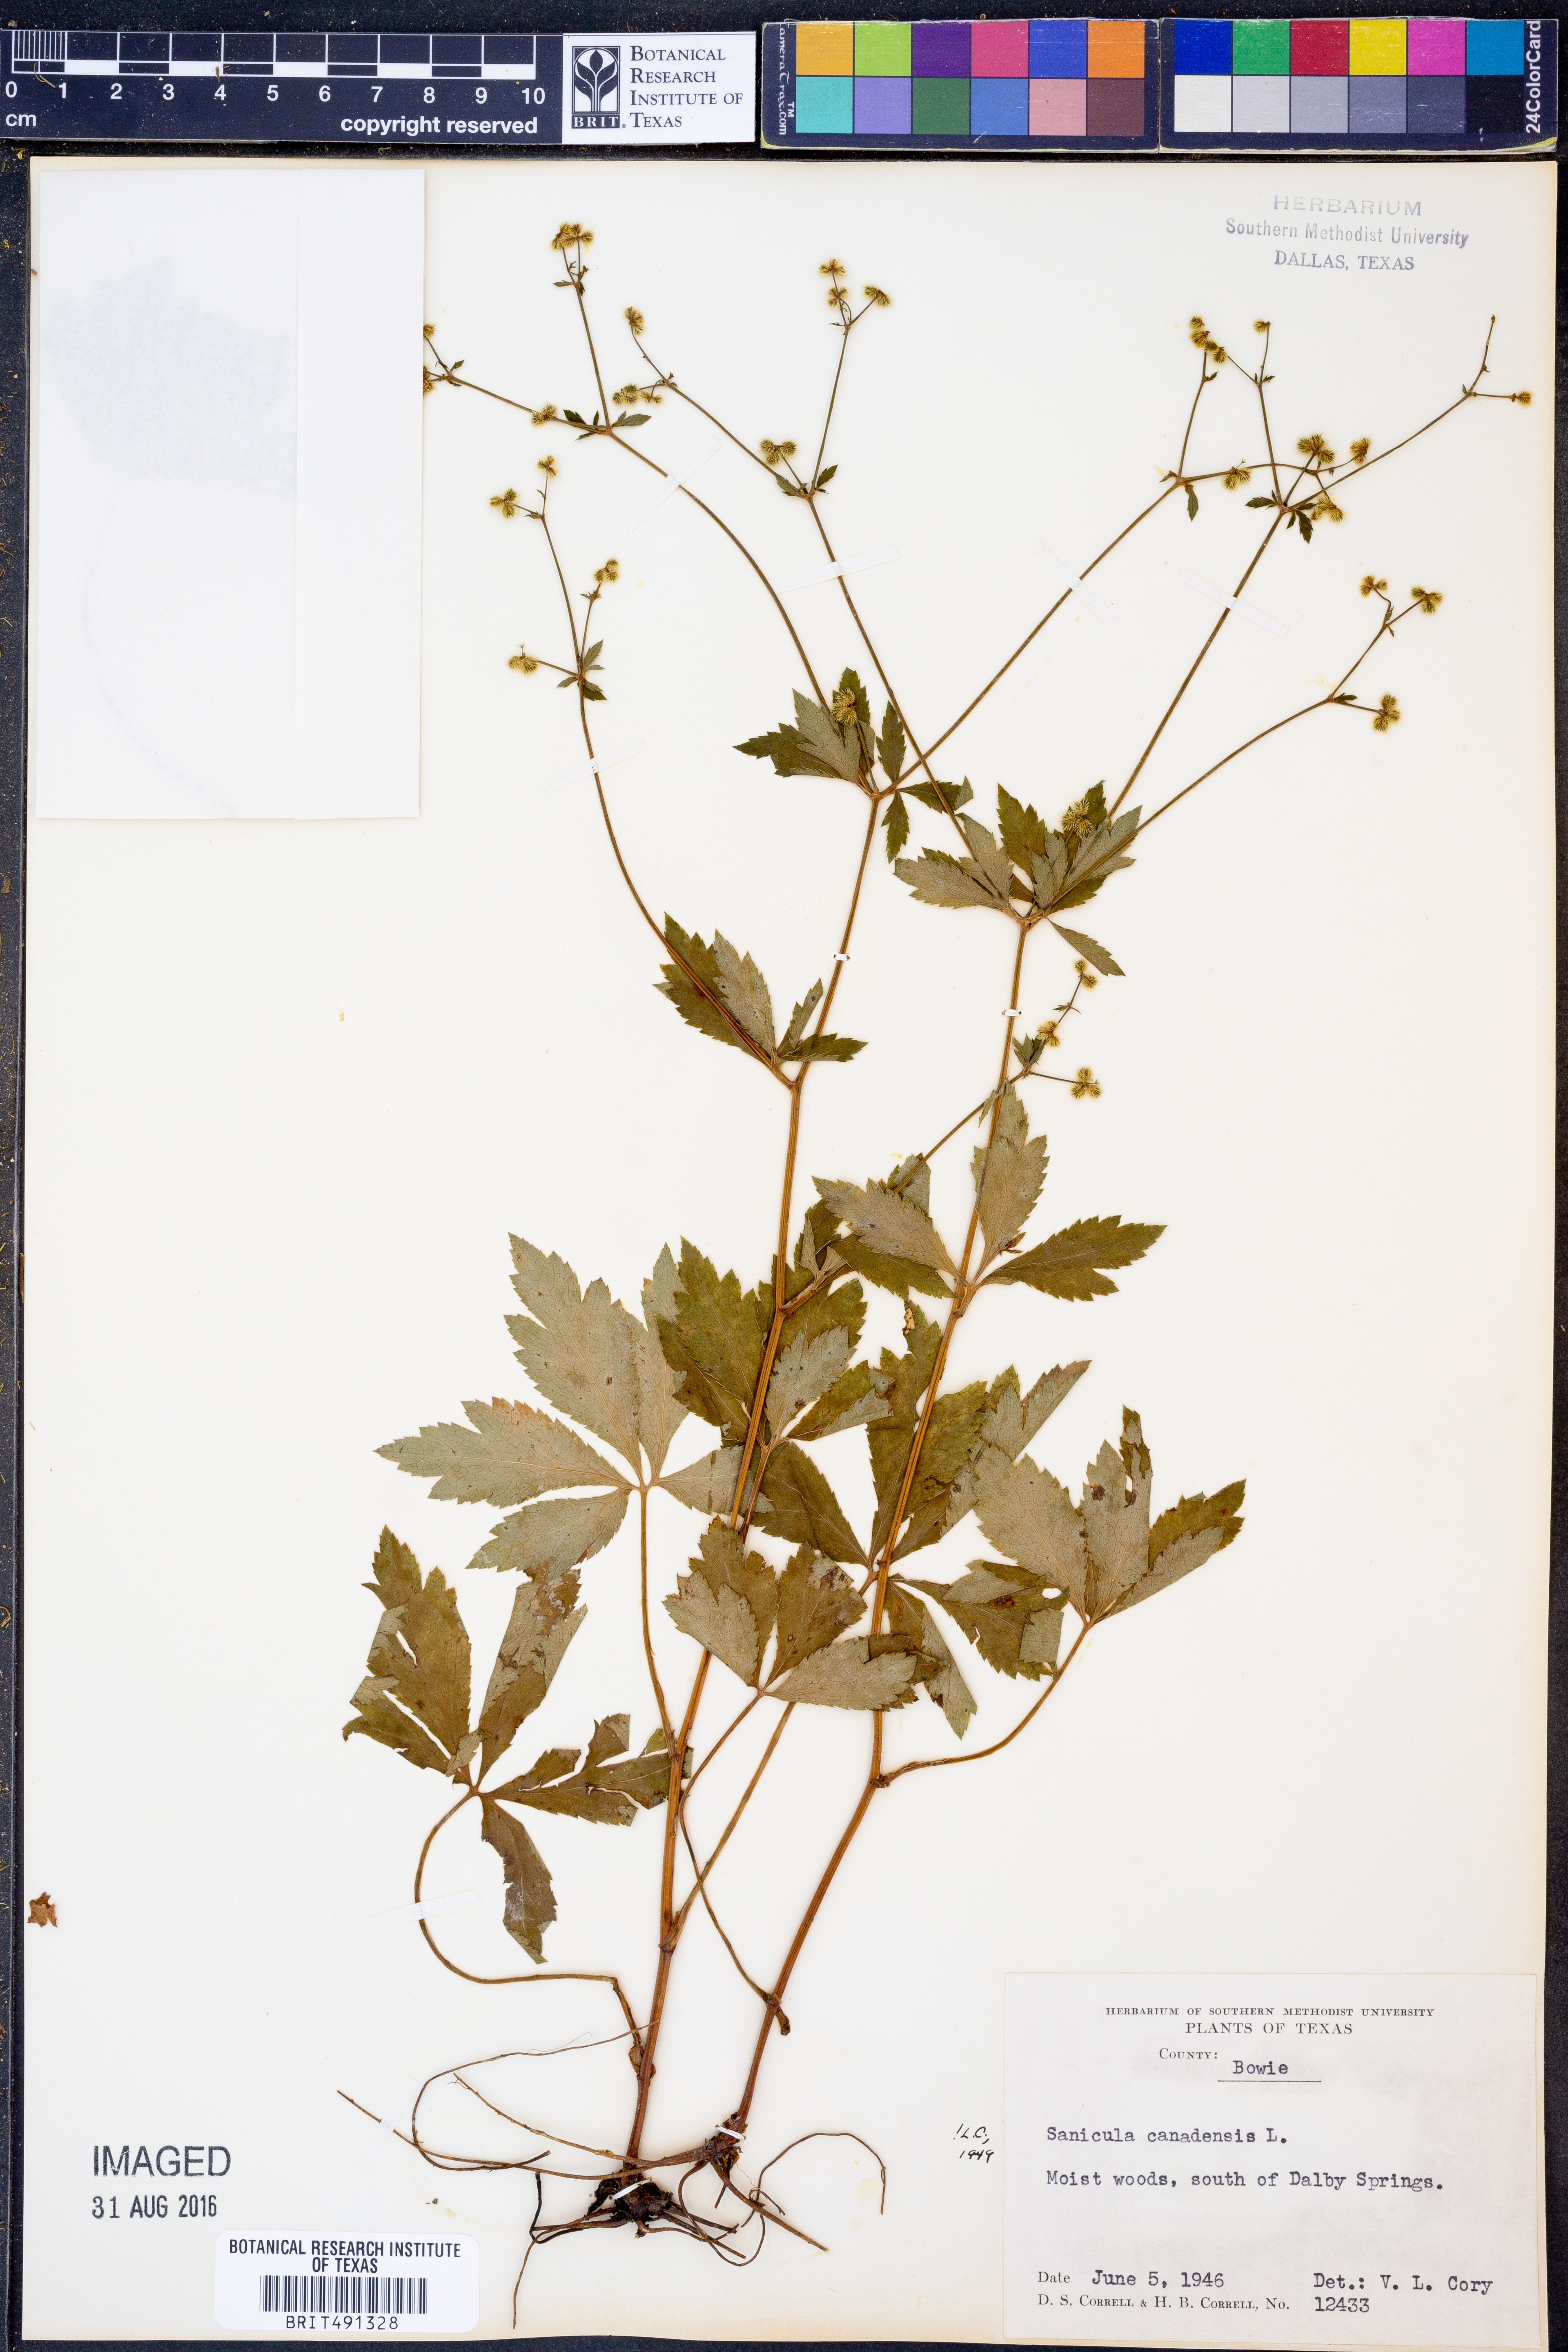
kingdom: Plantae
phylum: Tracheophyta
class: Magnoliopsida
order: Apiales
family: Apiaceae
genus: Sanicula
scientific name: Sanicula canadensis
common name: Canada sanicle
